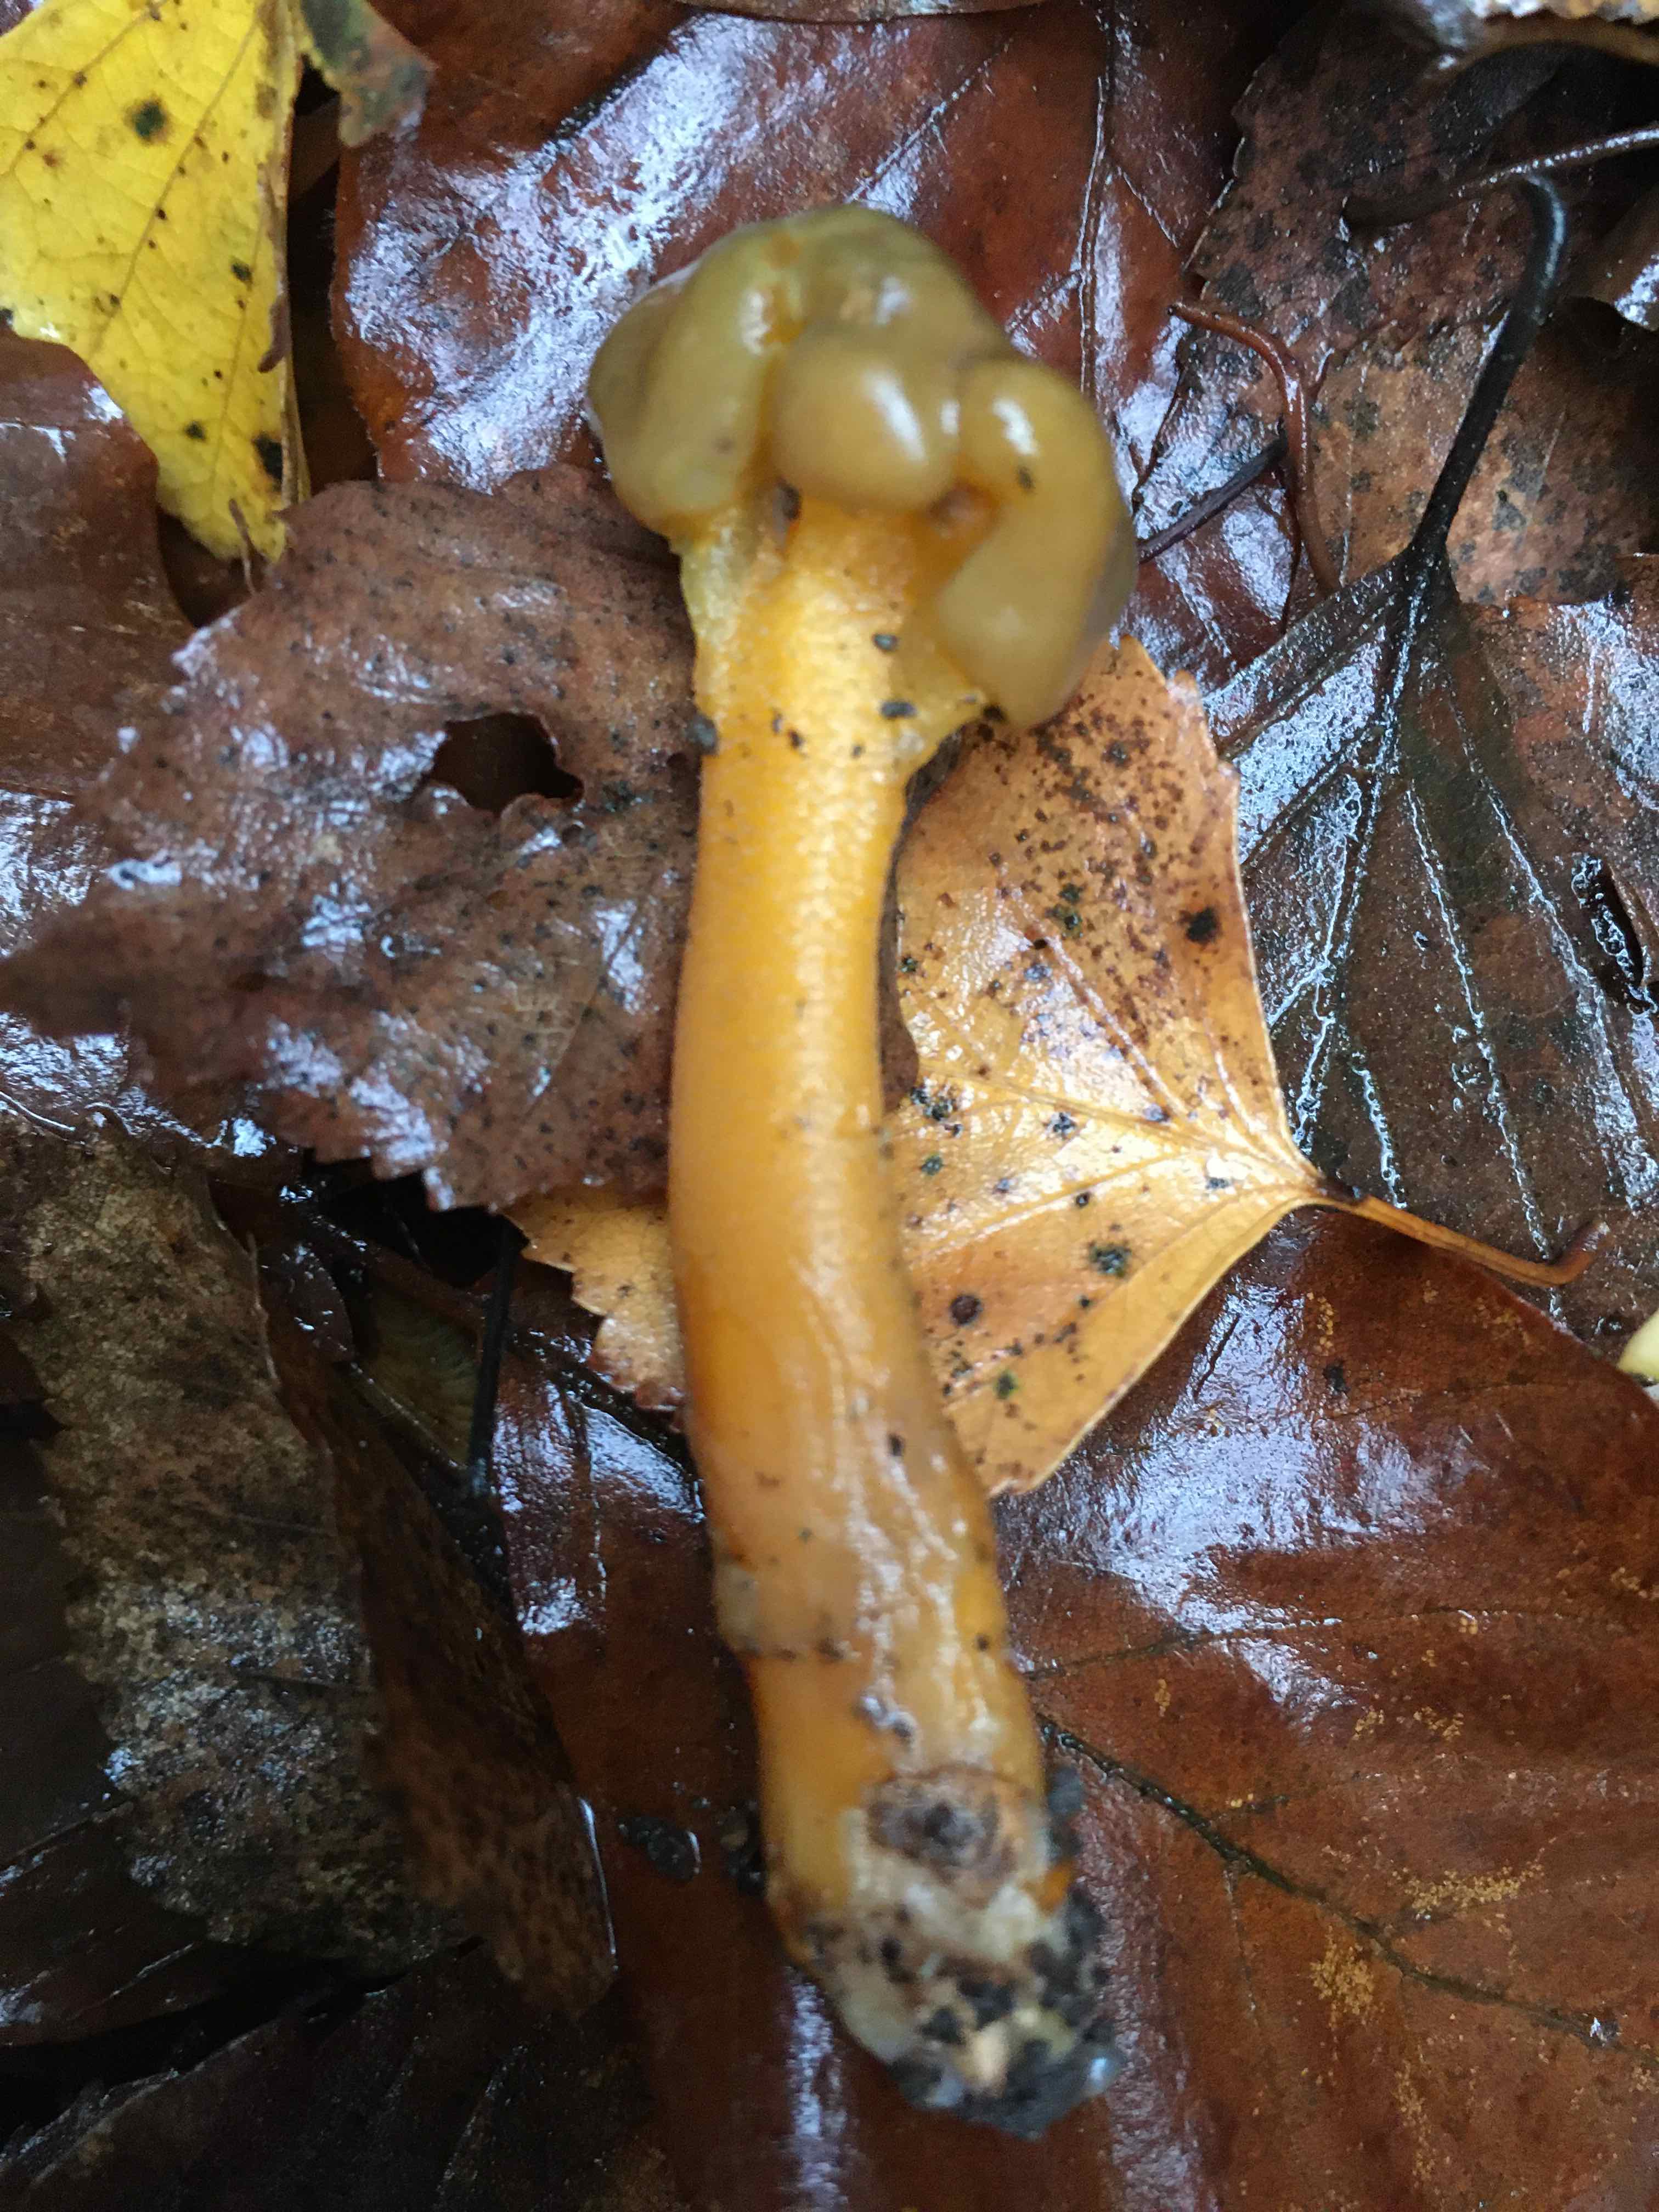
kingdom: Fungi
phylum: Ascomycota
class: Leotiomycetes
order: Leotiales
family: Leotiaceae
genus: Leotia
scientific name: Leotia lubrica
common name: ravsvamp
